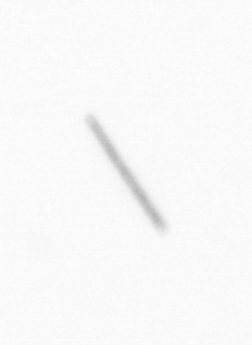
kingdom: Chromista
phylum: Ochrophyta
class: Bacillariophyceae
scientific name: Bacillariophyceae
